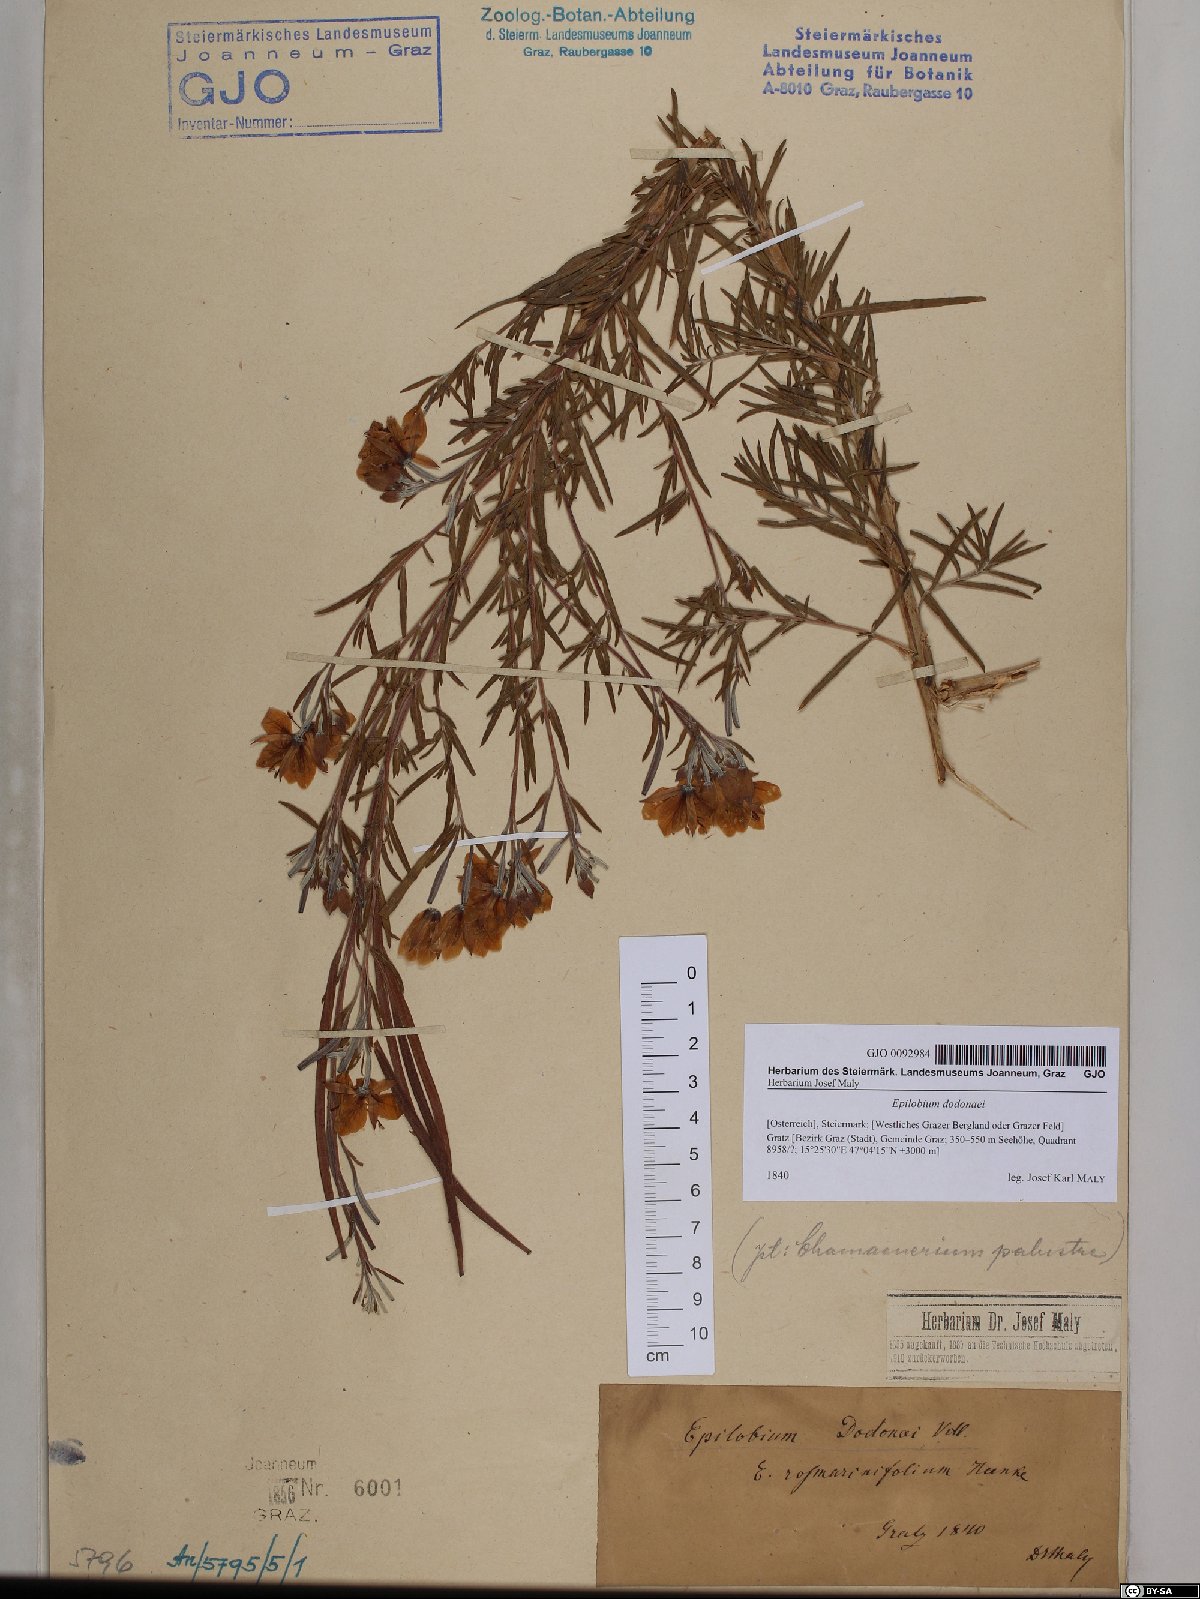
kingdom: Plantae
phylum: Tracheophyta
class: Magnoliopsida
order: Myrtales
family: Onagraceae
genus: Chamaenerion
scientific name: Chamaenerion dodonaei
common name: Rosemary-leaved willowherb
